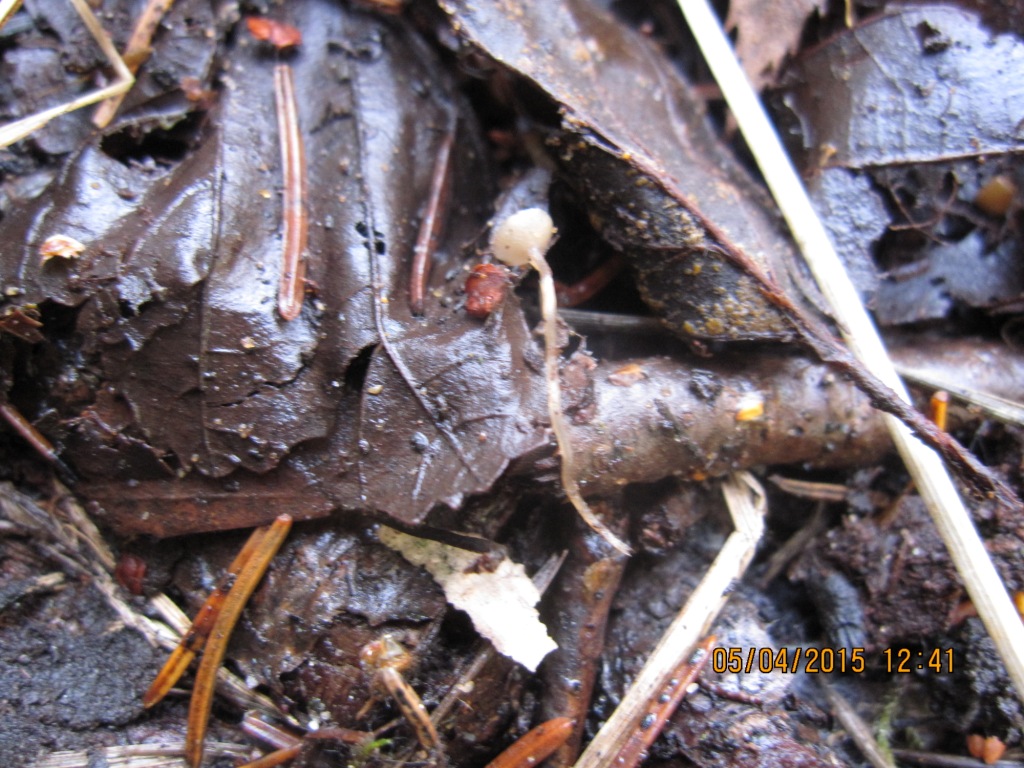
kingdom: Fungi
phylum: Ascomycota
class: Leotiomycetes
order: Helotiales
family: Sclerotiniaceae
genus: Ciboria
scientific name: Ciboria amentacea
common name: ellerakle-knoldskive
